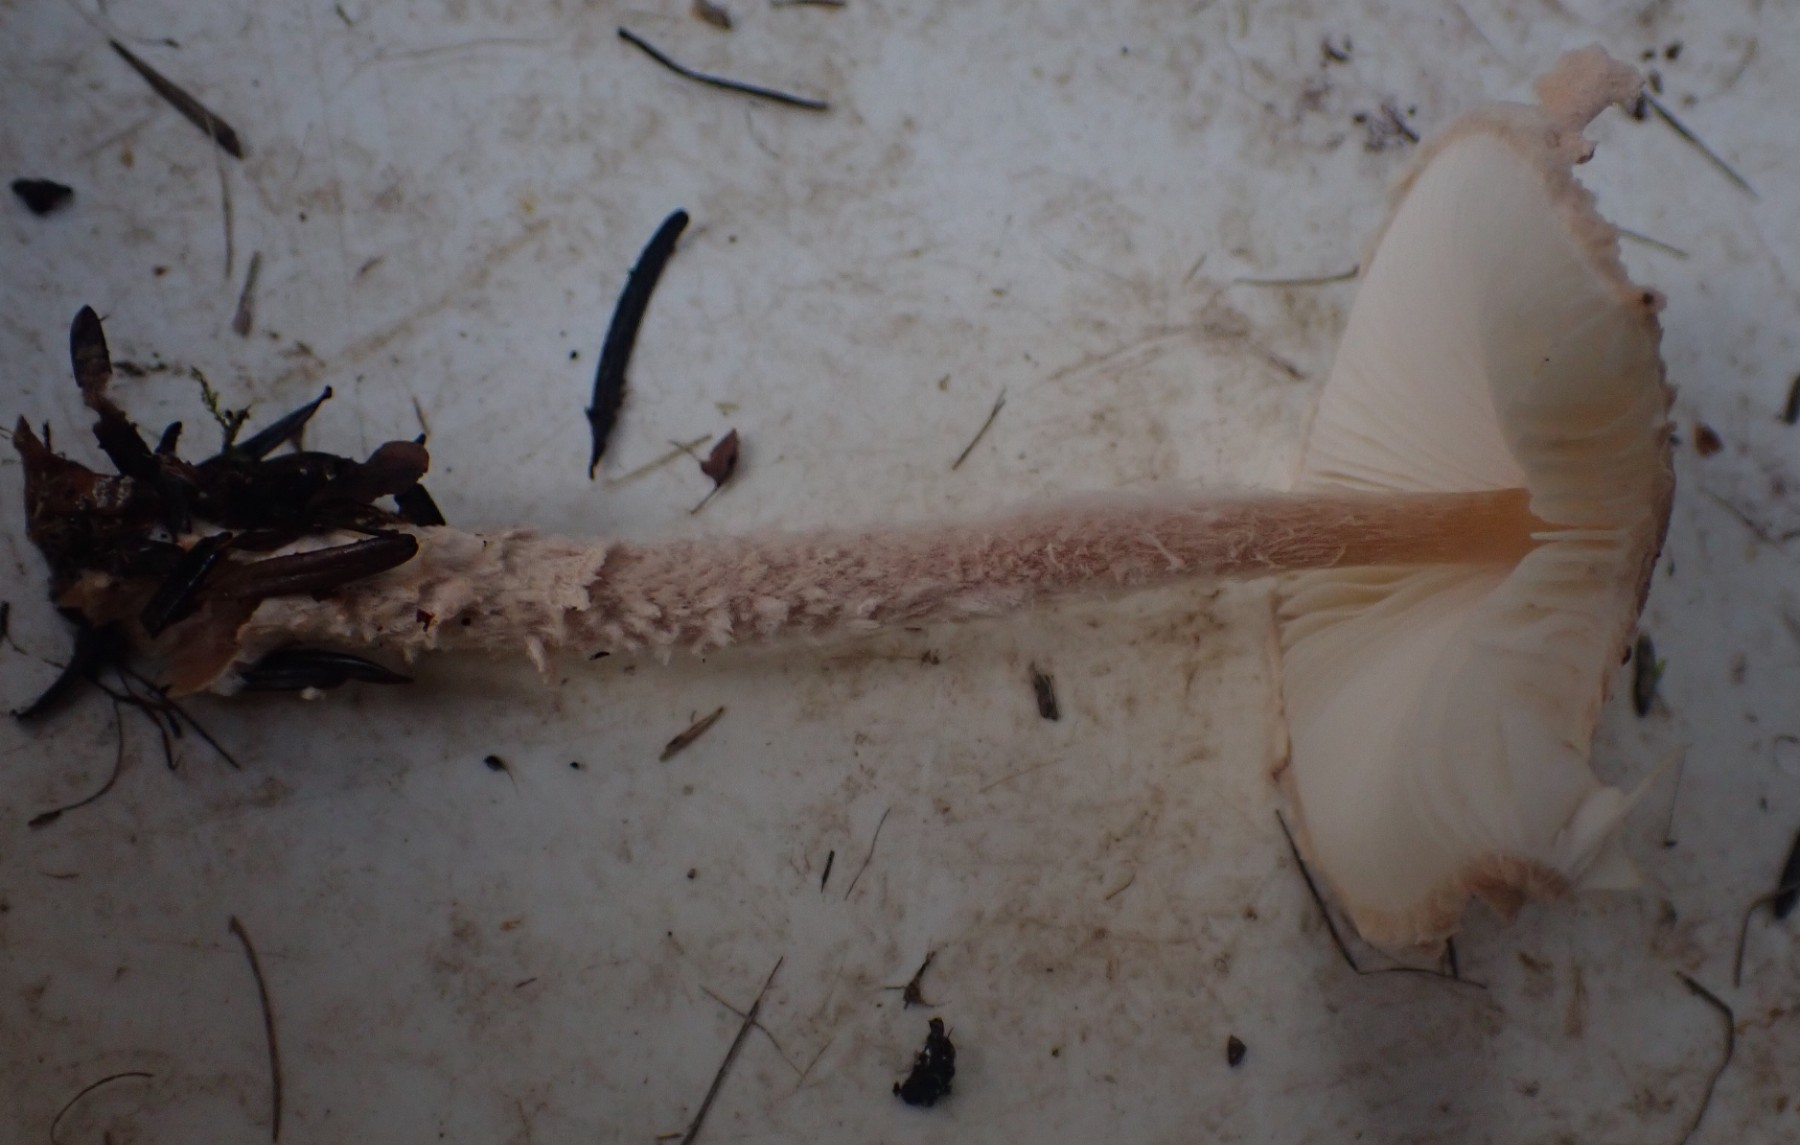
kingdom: Fungi
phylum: Basidiomycota
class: Agaricomycetes
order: Agaricales
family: Agaricaceae
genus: Lepiota
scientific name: Lepiota magnispora
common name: gulfnugget parasolhat
